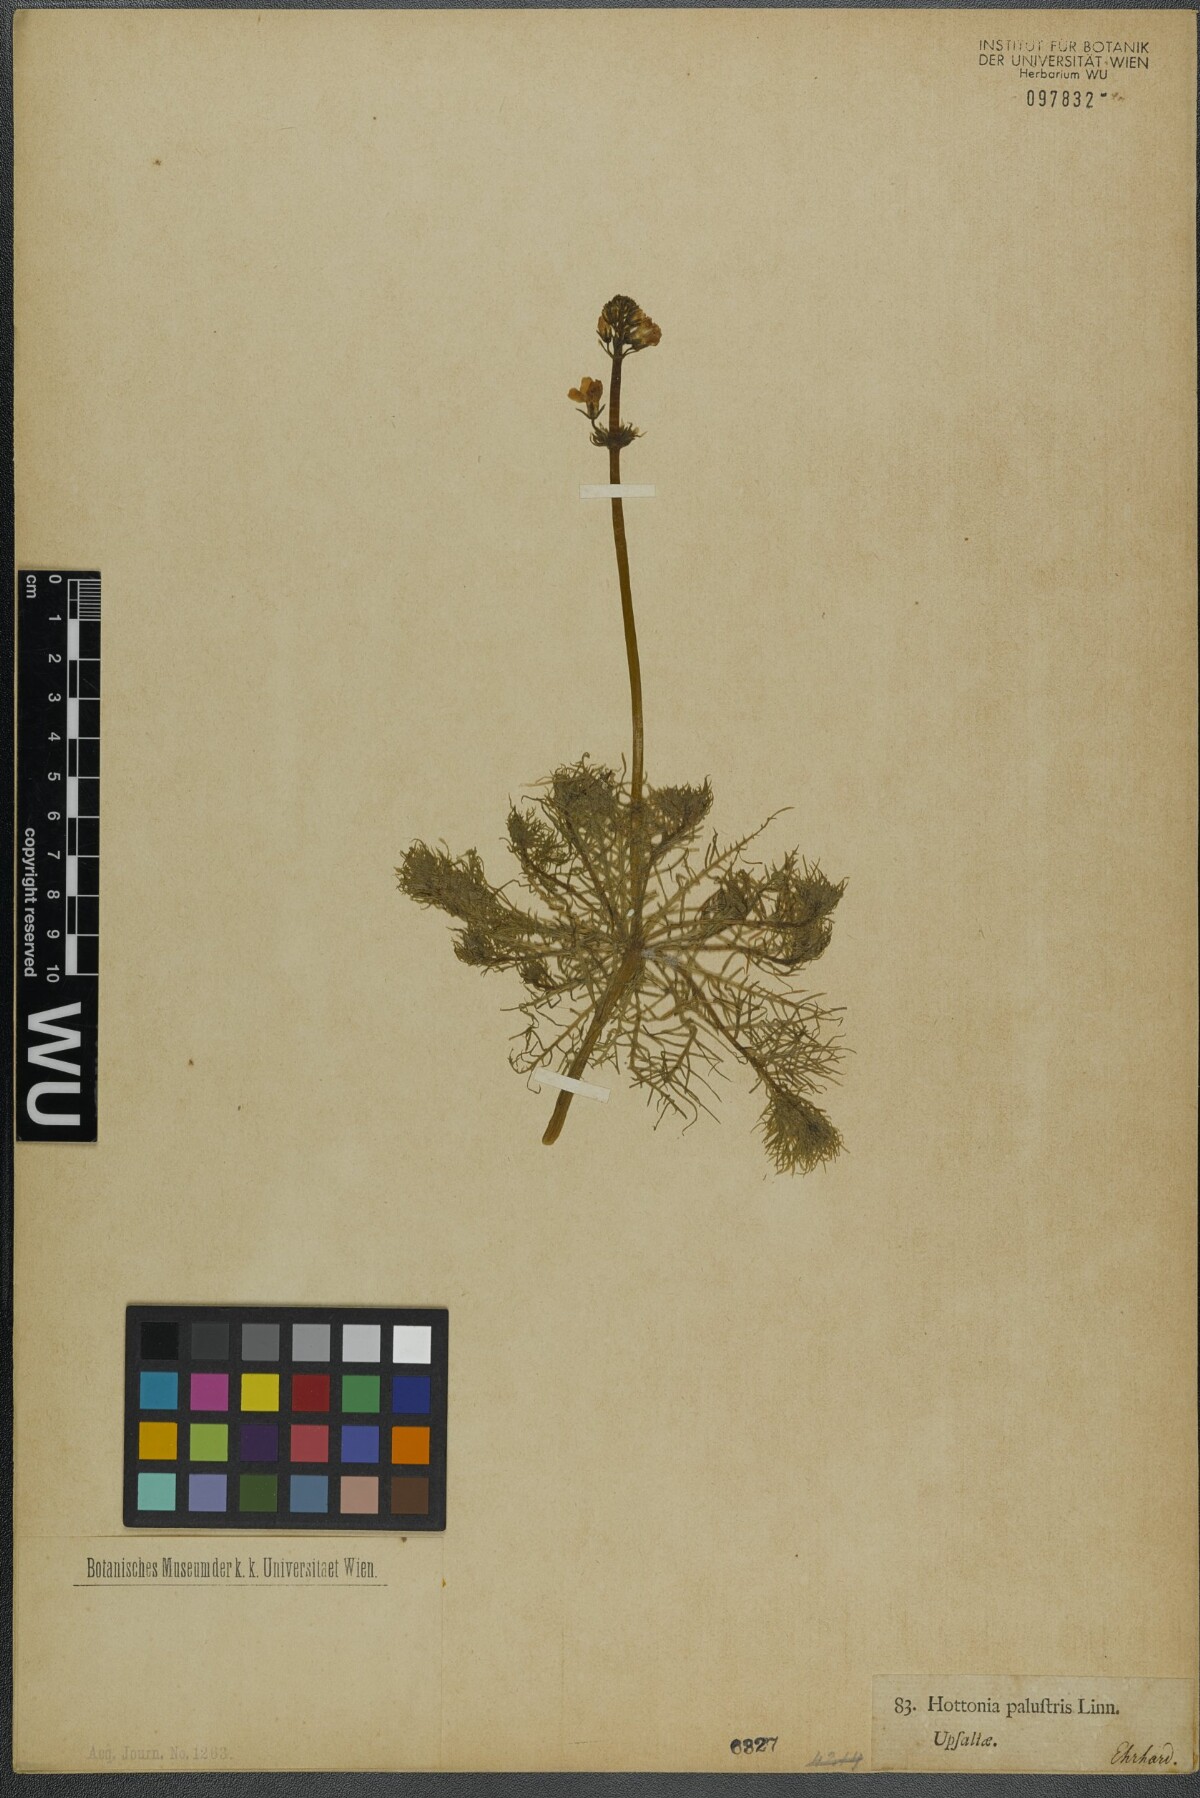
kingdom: Plantae
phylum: Tracheophyta
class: Magnoliopsida
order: Ericales
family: Primulaceae
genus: Hottonia
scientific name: Hottonia palustris
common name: Water-violet
